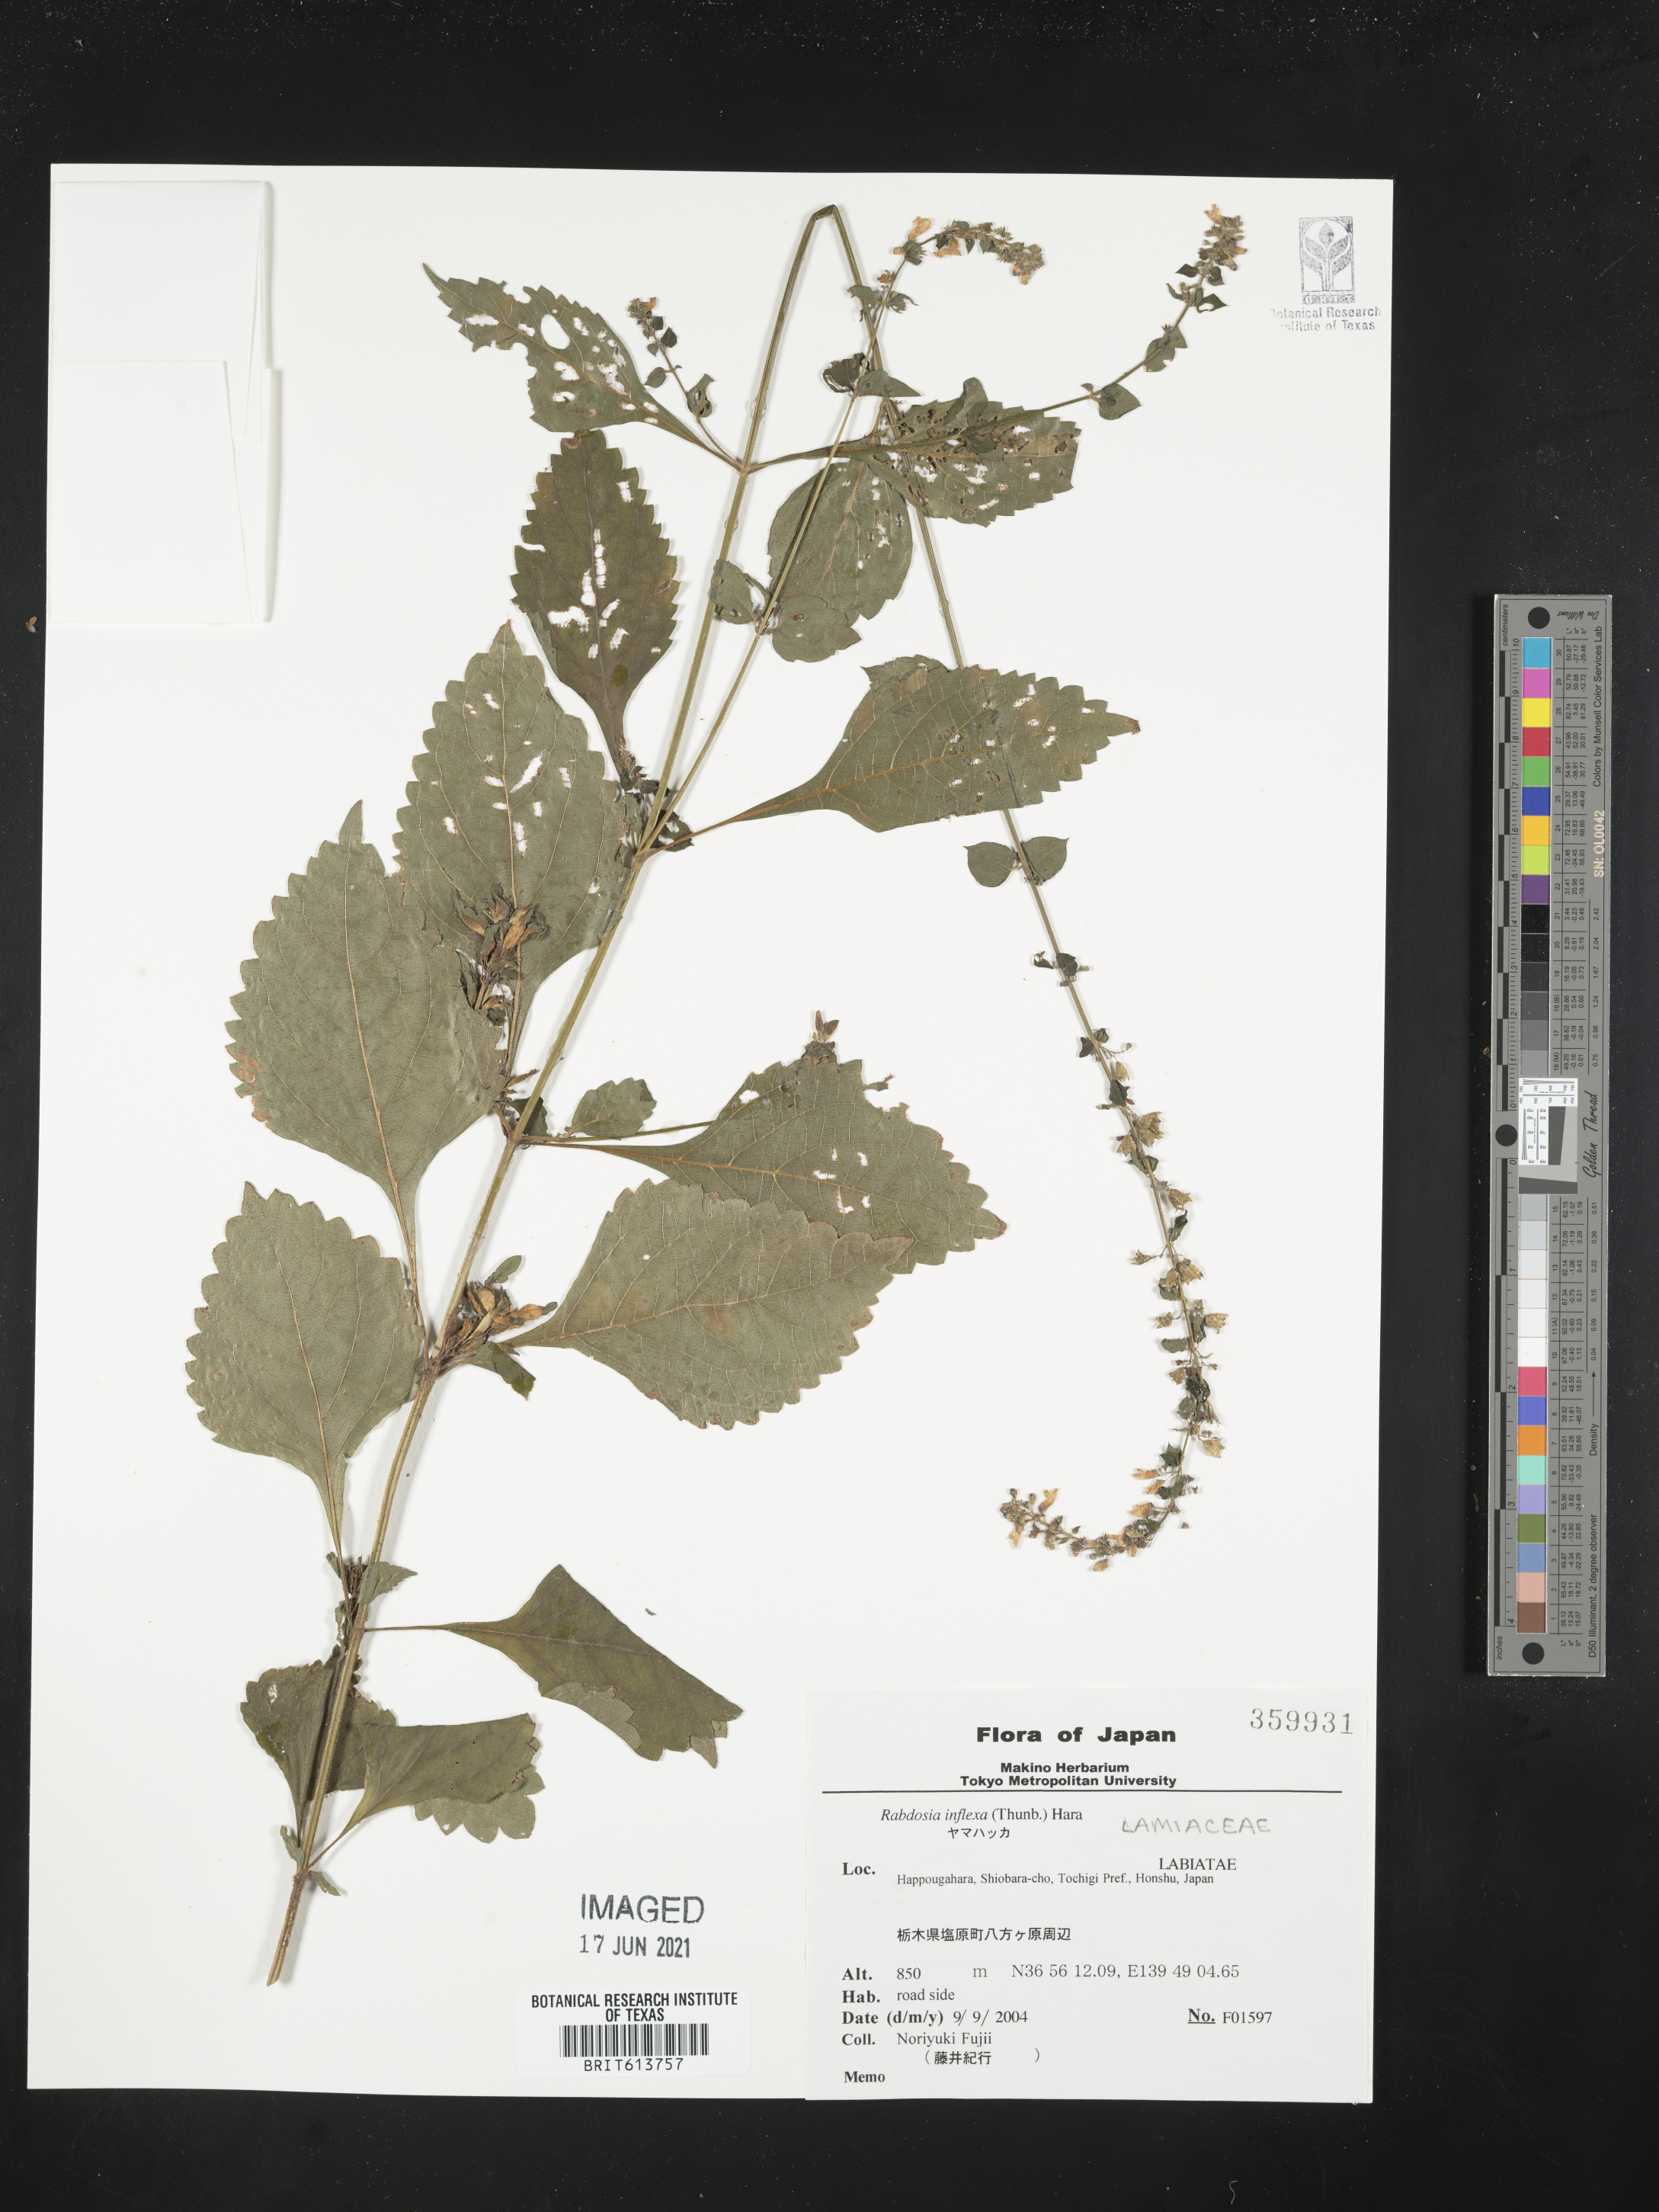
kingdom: Plantae
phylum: Tracheophyta
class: Magnoliopsida
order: Lamiales
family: Lamiaceae
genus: Isodon
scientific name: Isodon inflexus
